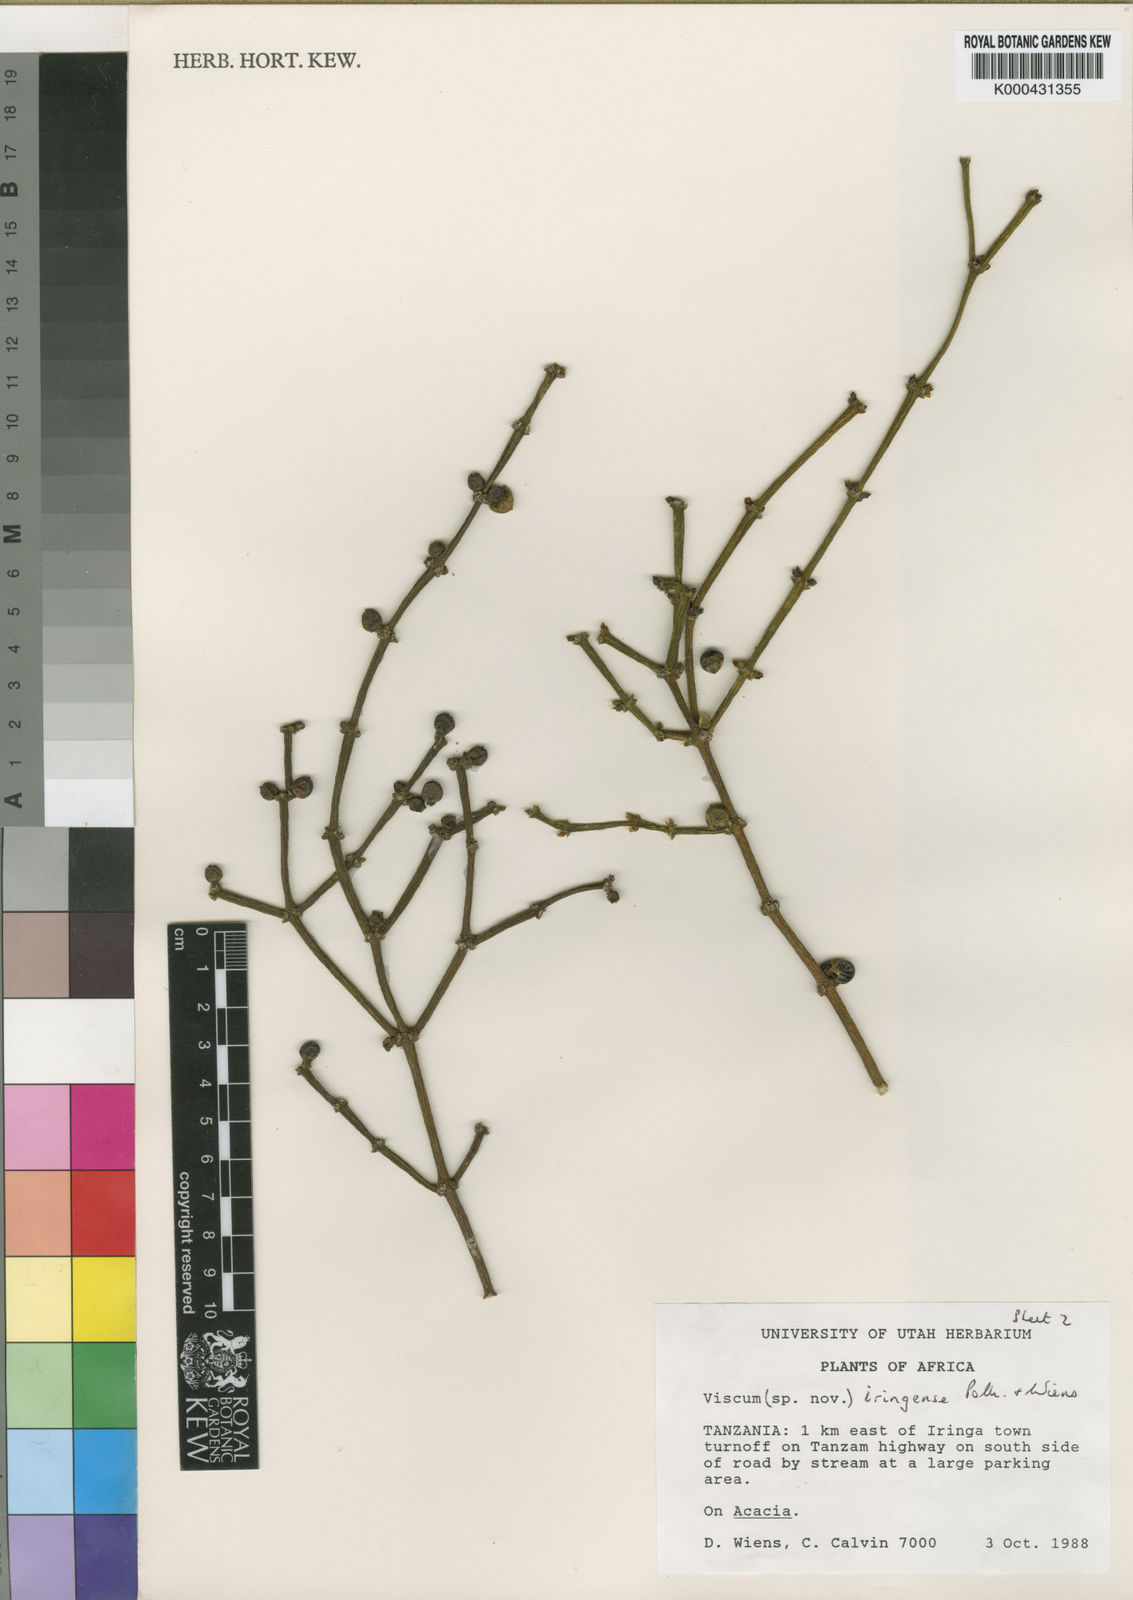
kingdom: Plantae
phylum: Tracheophyta
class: Magnoliopsida
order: Santalales
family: Viscaceae
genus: Viscum
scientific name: Viscum iringense
